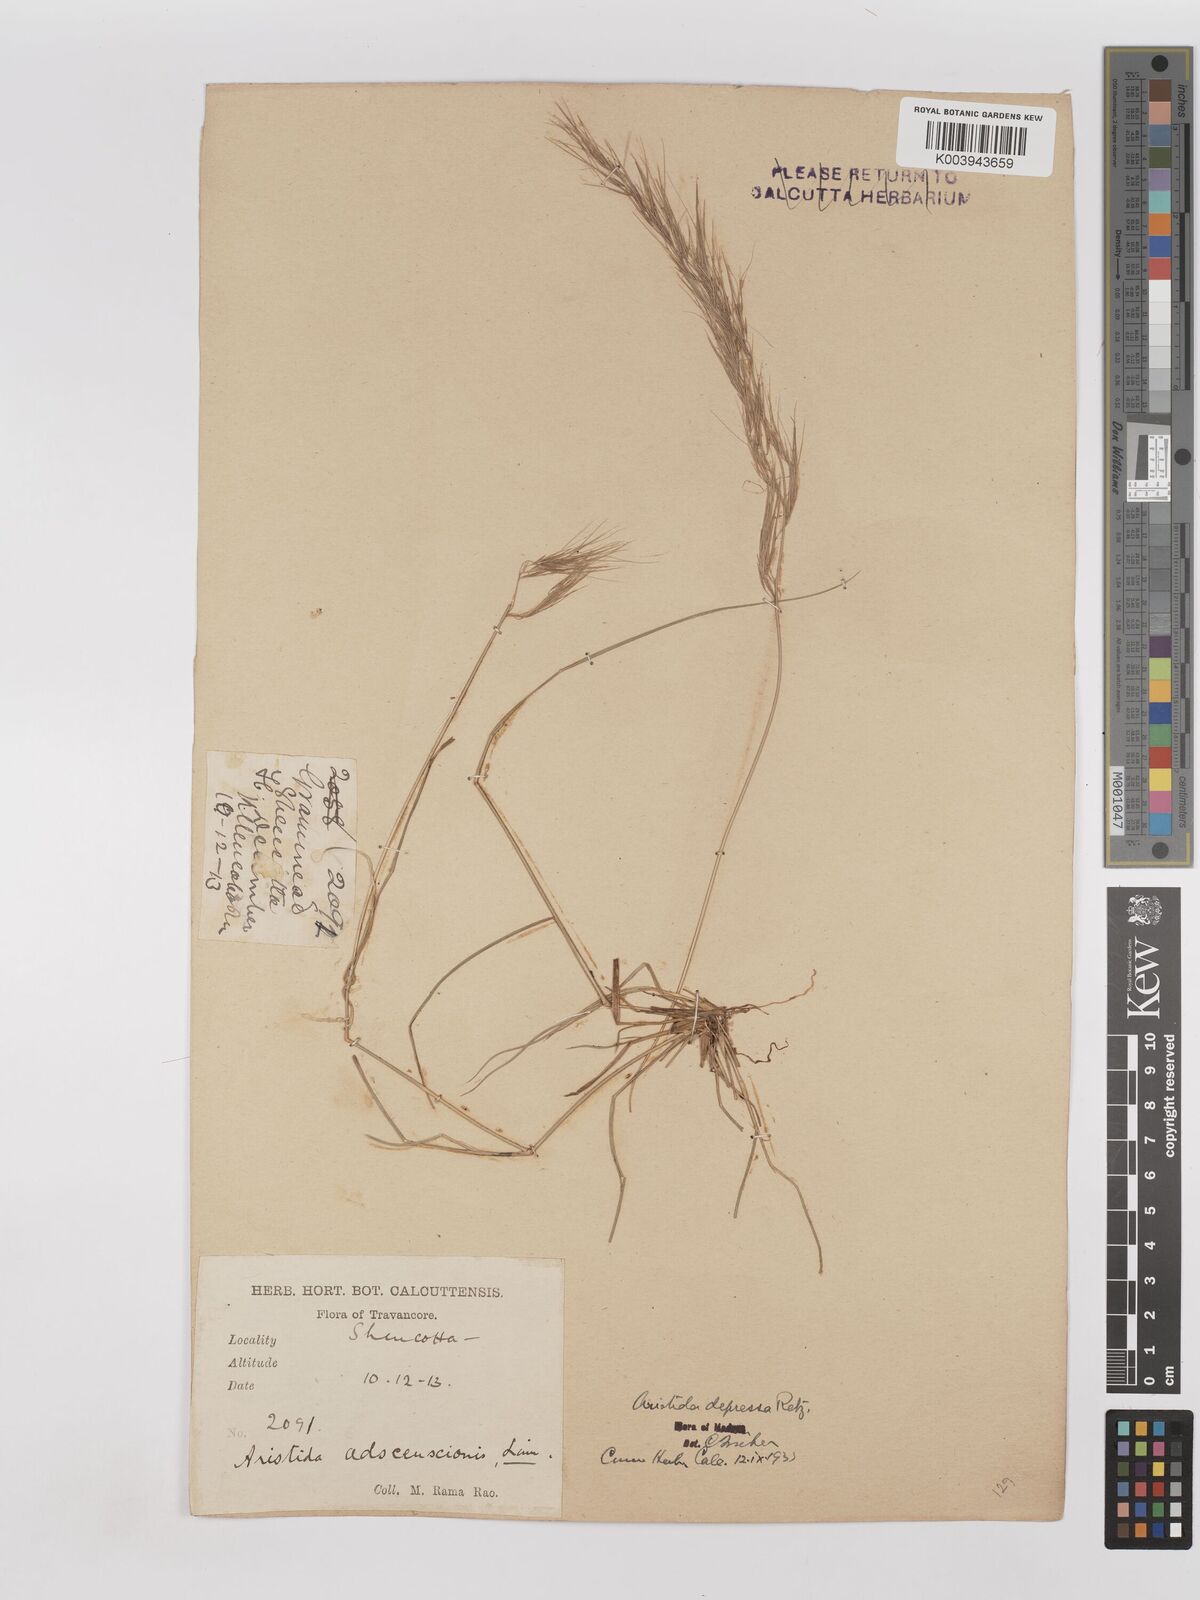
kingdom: Plantae
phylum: Tracheophyta
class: Liliopsida
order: Poales
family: Poaceae
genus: Aristida
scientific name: Aristida adscensionis
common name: Sixweeks threeawn
